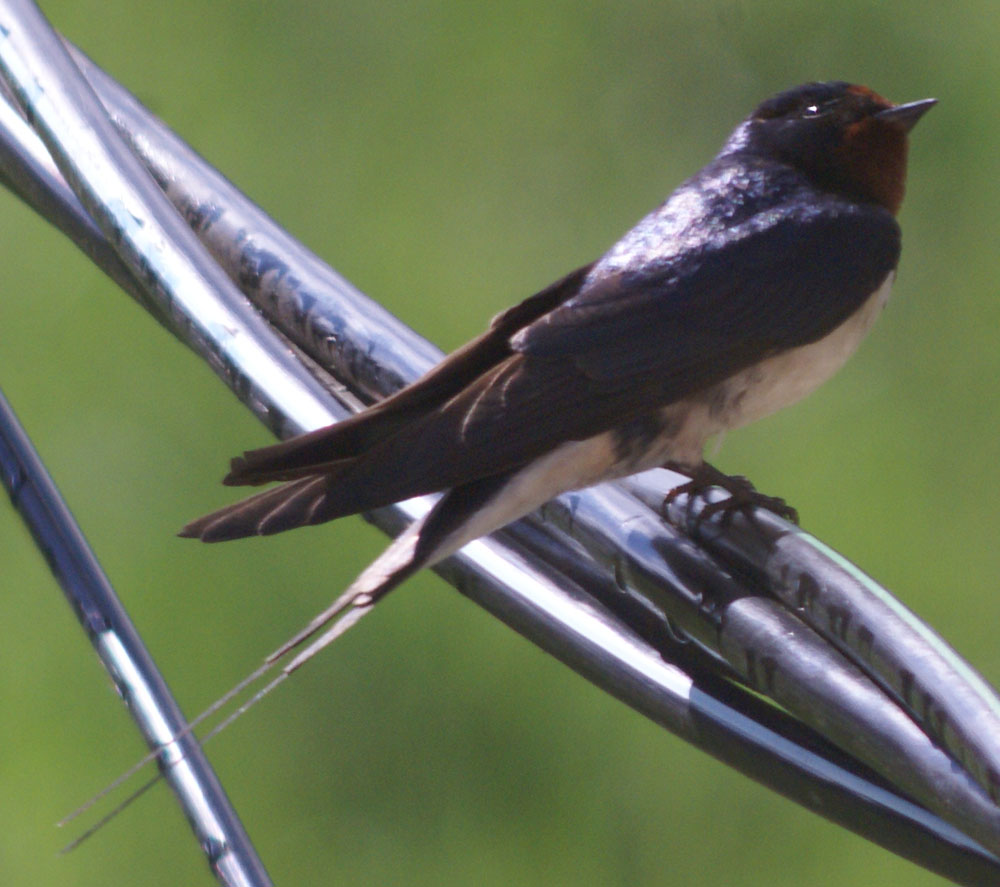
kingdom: Animalia
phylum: Chordata
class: Aves
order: Passeriformes
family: Hirundinidae
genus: Hirundo
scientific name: Hirundo rustica
